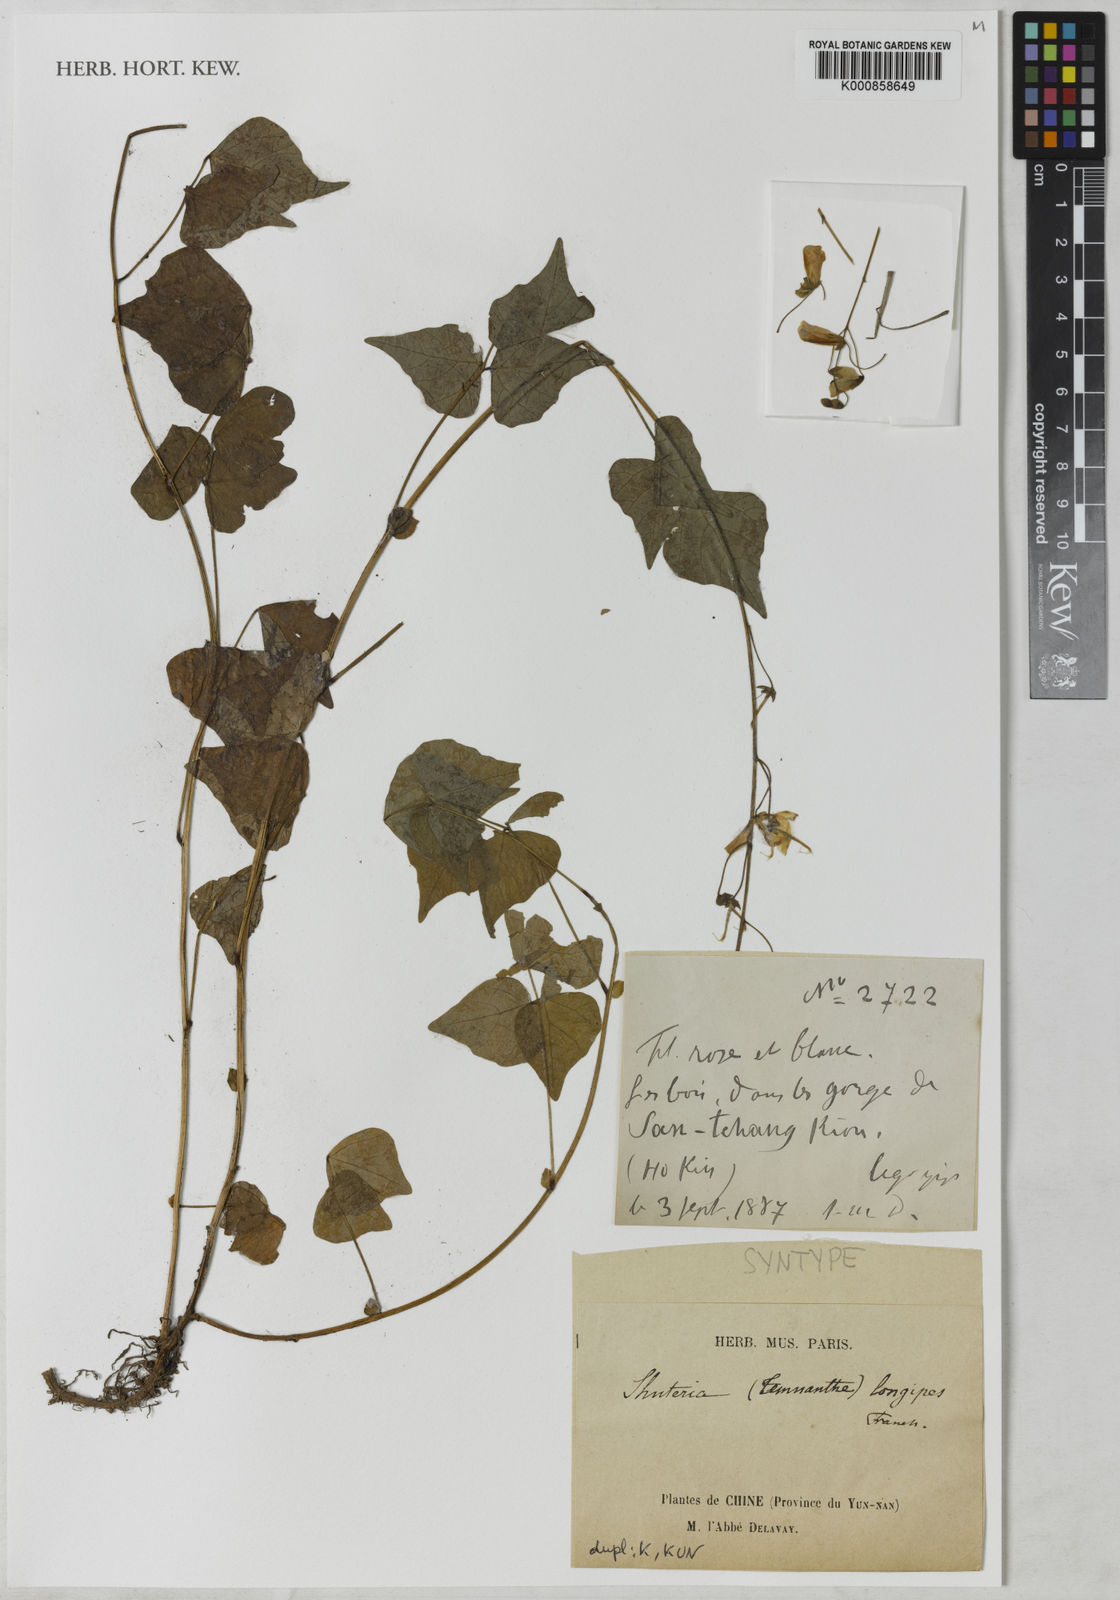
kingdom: Plantae
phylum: Tracheophyta
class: Magnoliopsida
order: Fabales
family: Fabaceae
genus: Hylodesmum
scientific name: Hylodesmum longipes
